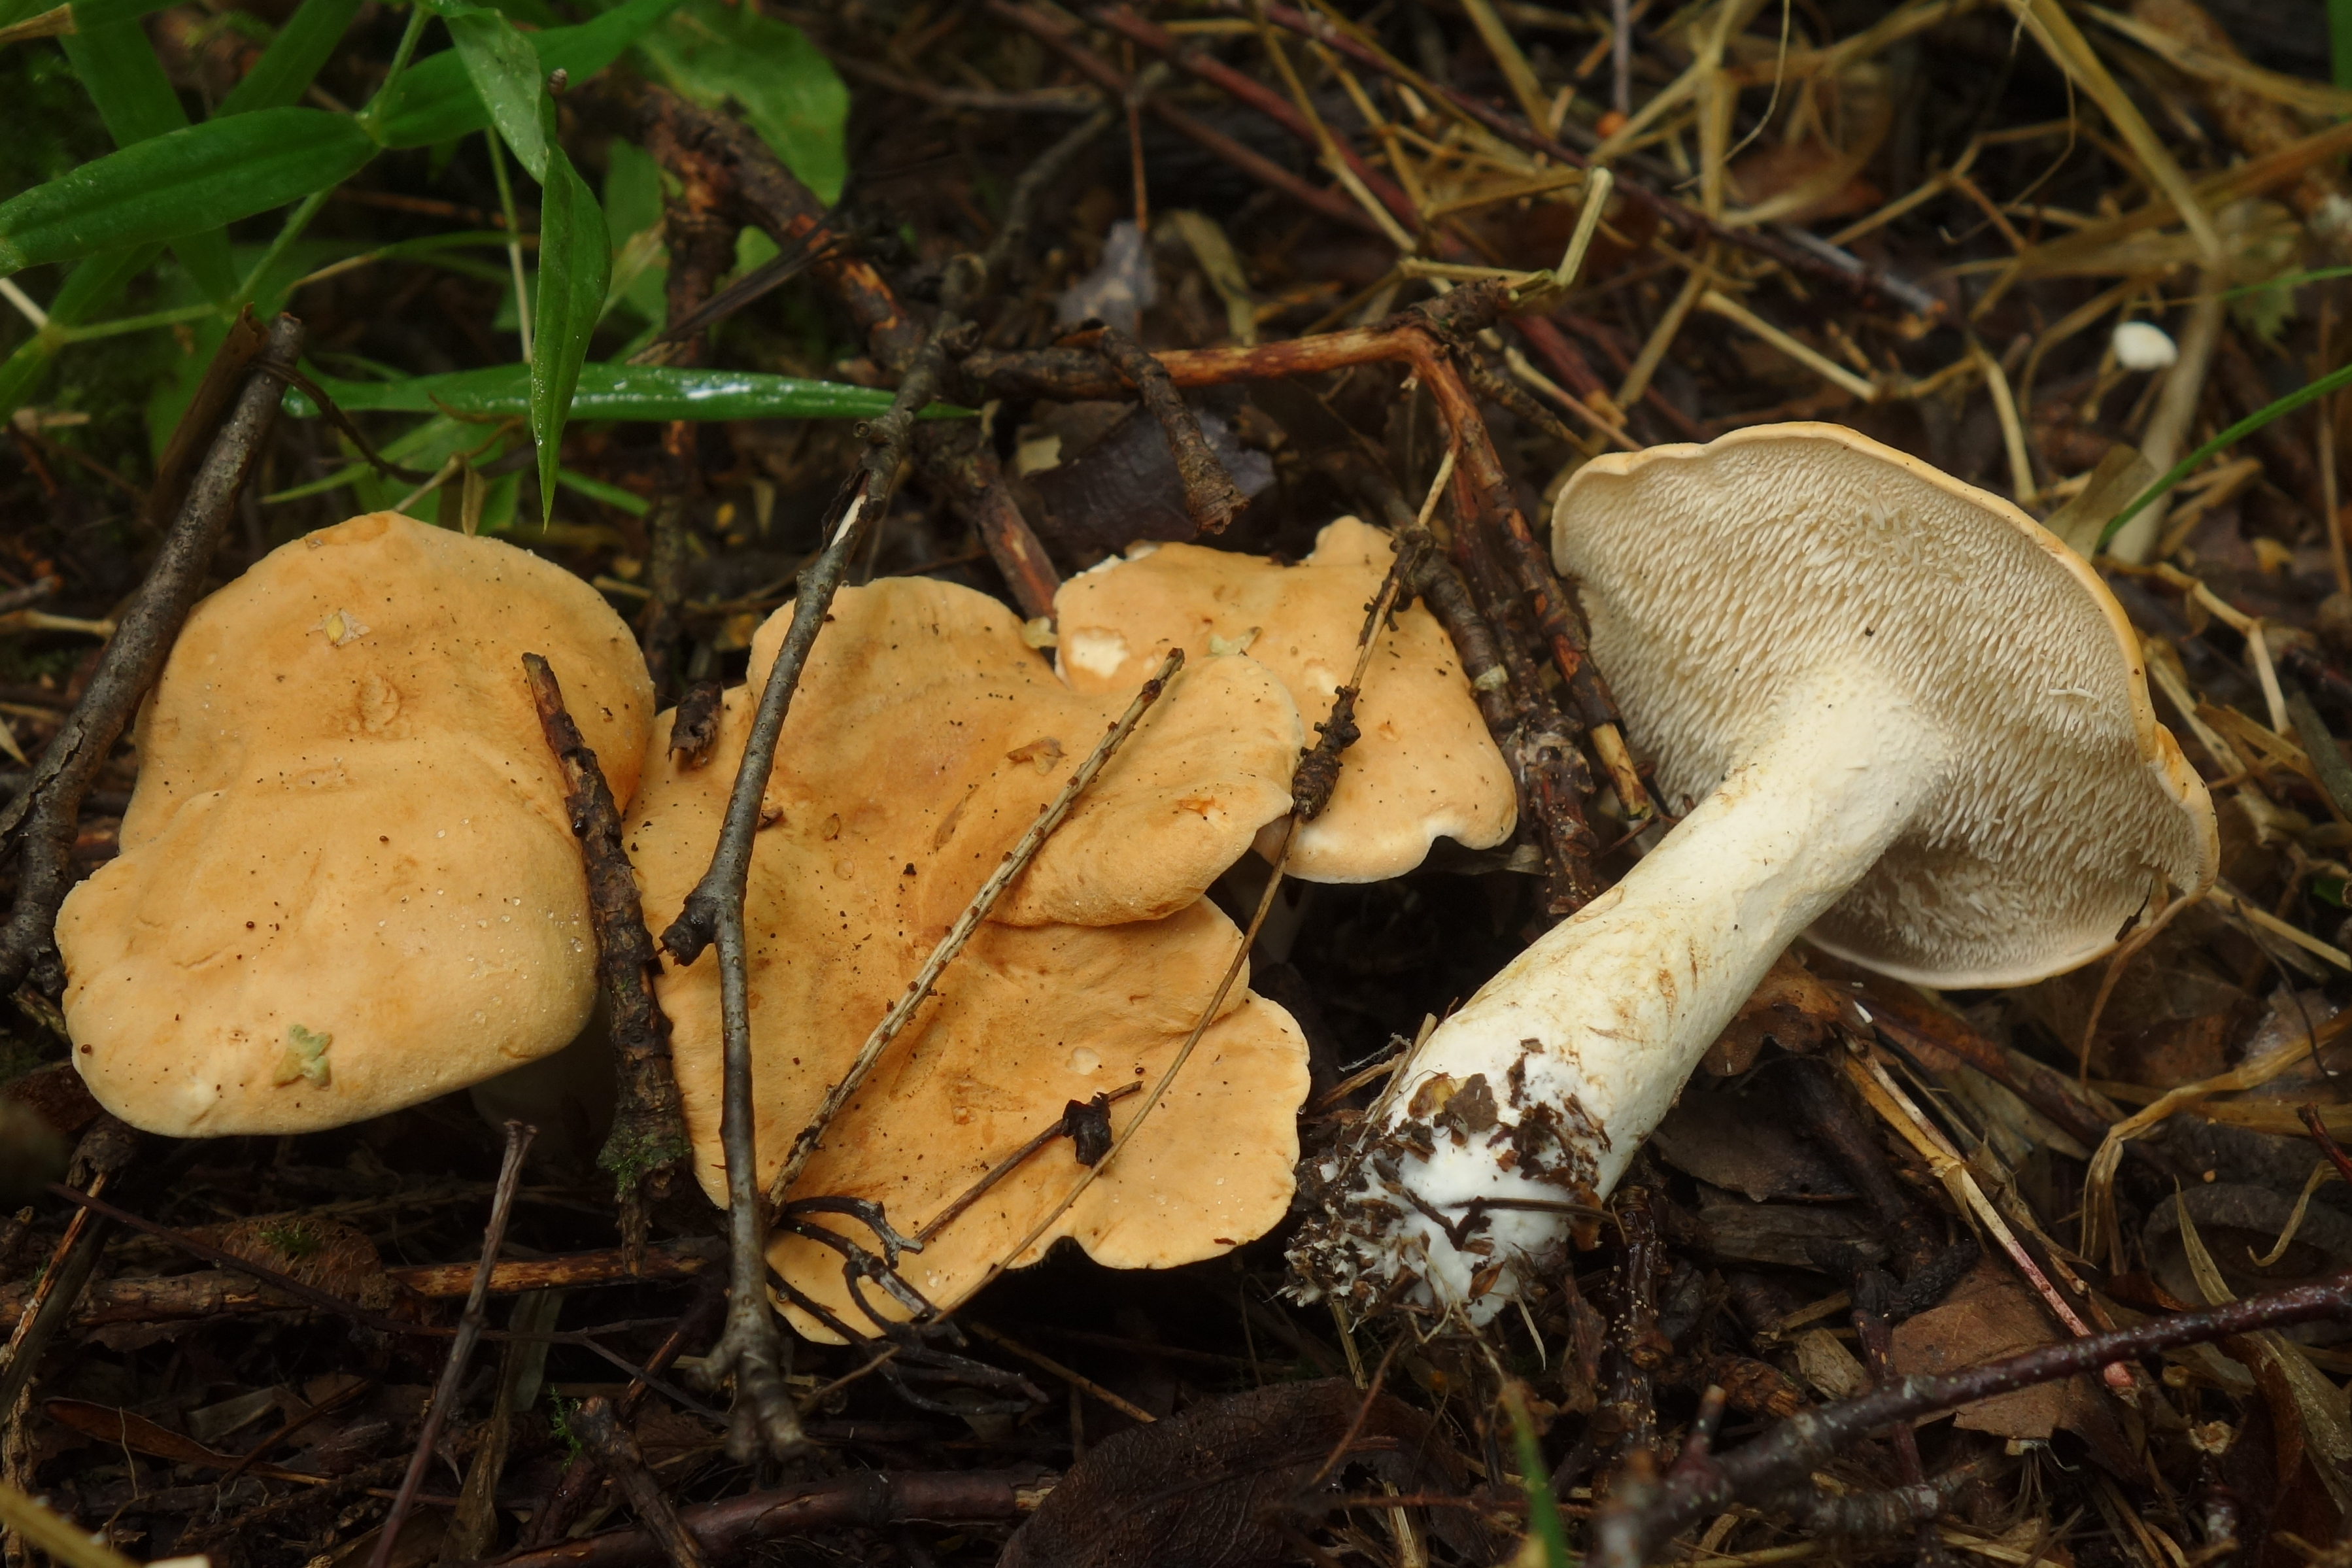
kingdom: Fungi
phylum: Basidiomycota
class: Agaricomycetes
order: Cantharellales
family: Hydnaceae
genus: Hydnum
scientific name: Hydnum rufescens
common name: Terracotta hedgehog
